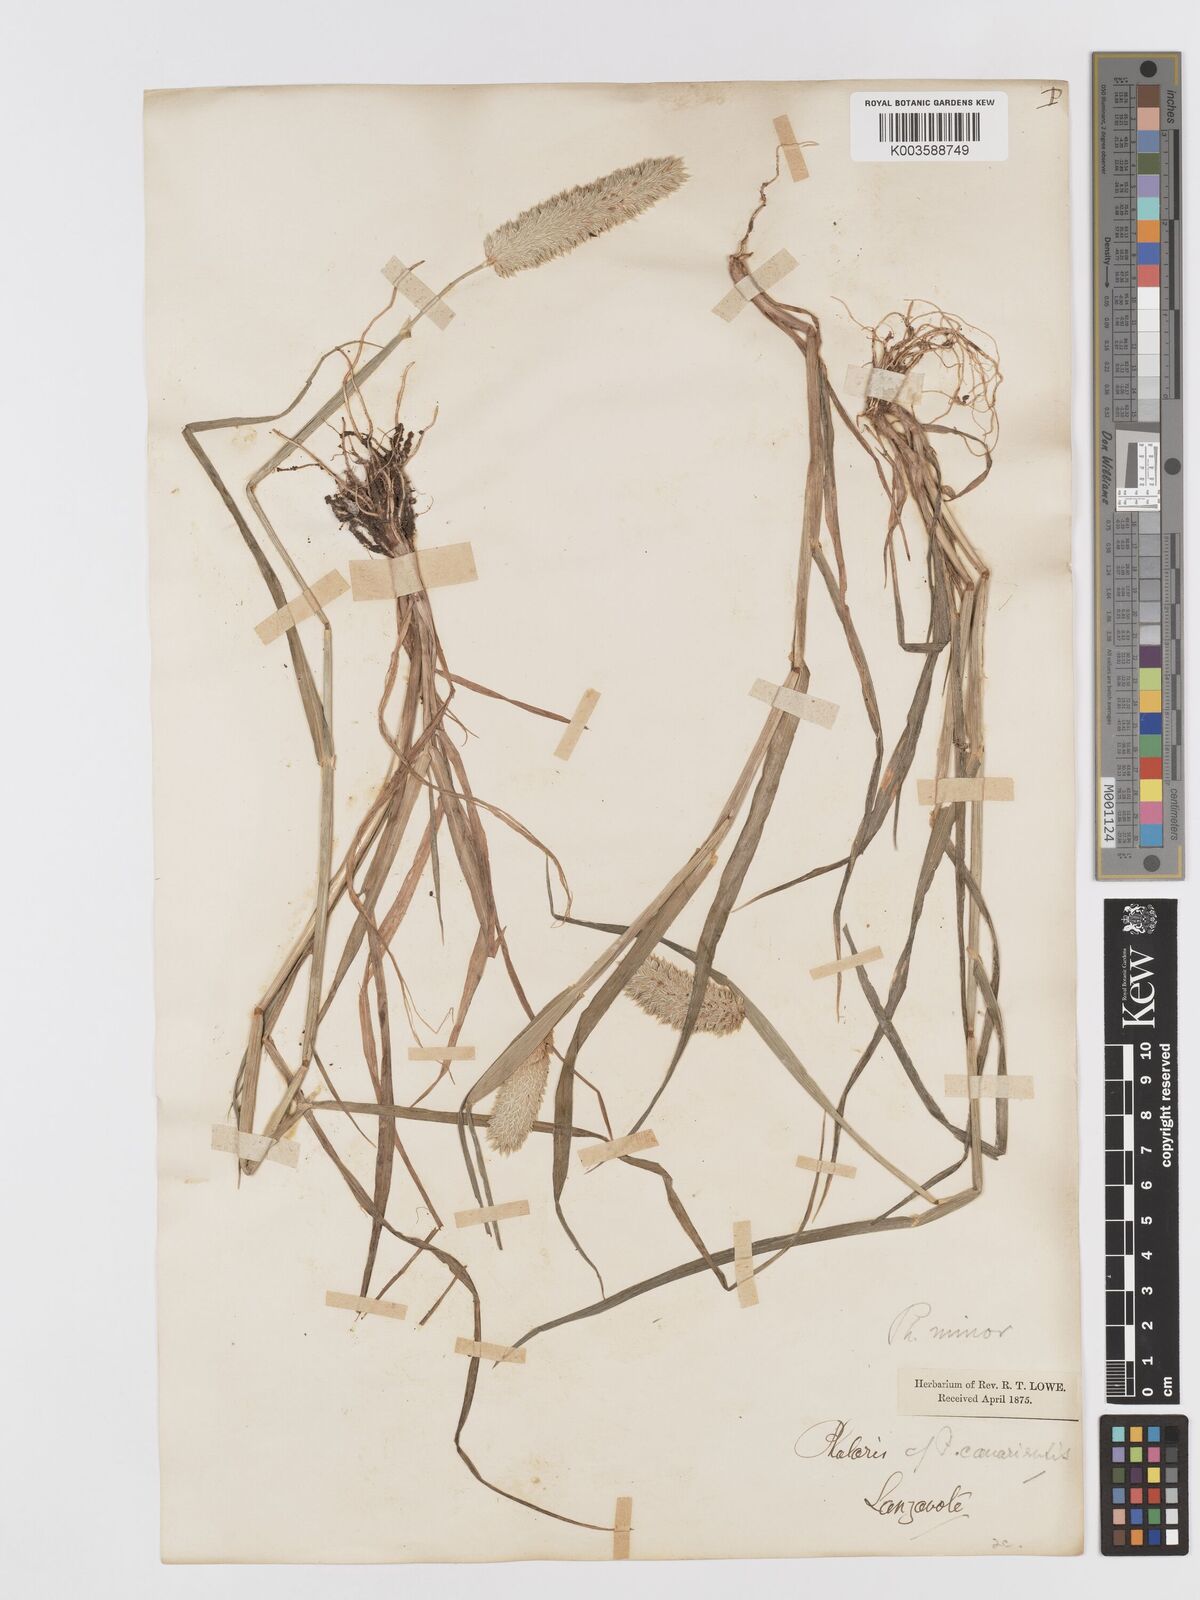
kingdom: Plantae
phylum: Tracheophyta
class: Liliopsida
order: Poales
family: Poaceae
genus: Phalaris
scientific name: Phalaris minor
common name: Littleseed canarygrass
